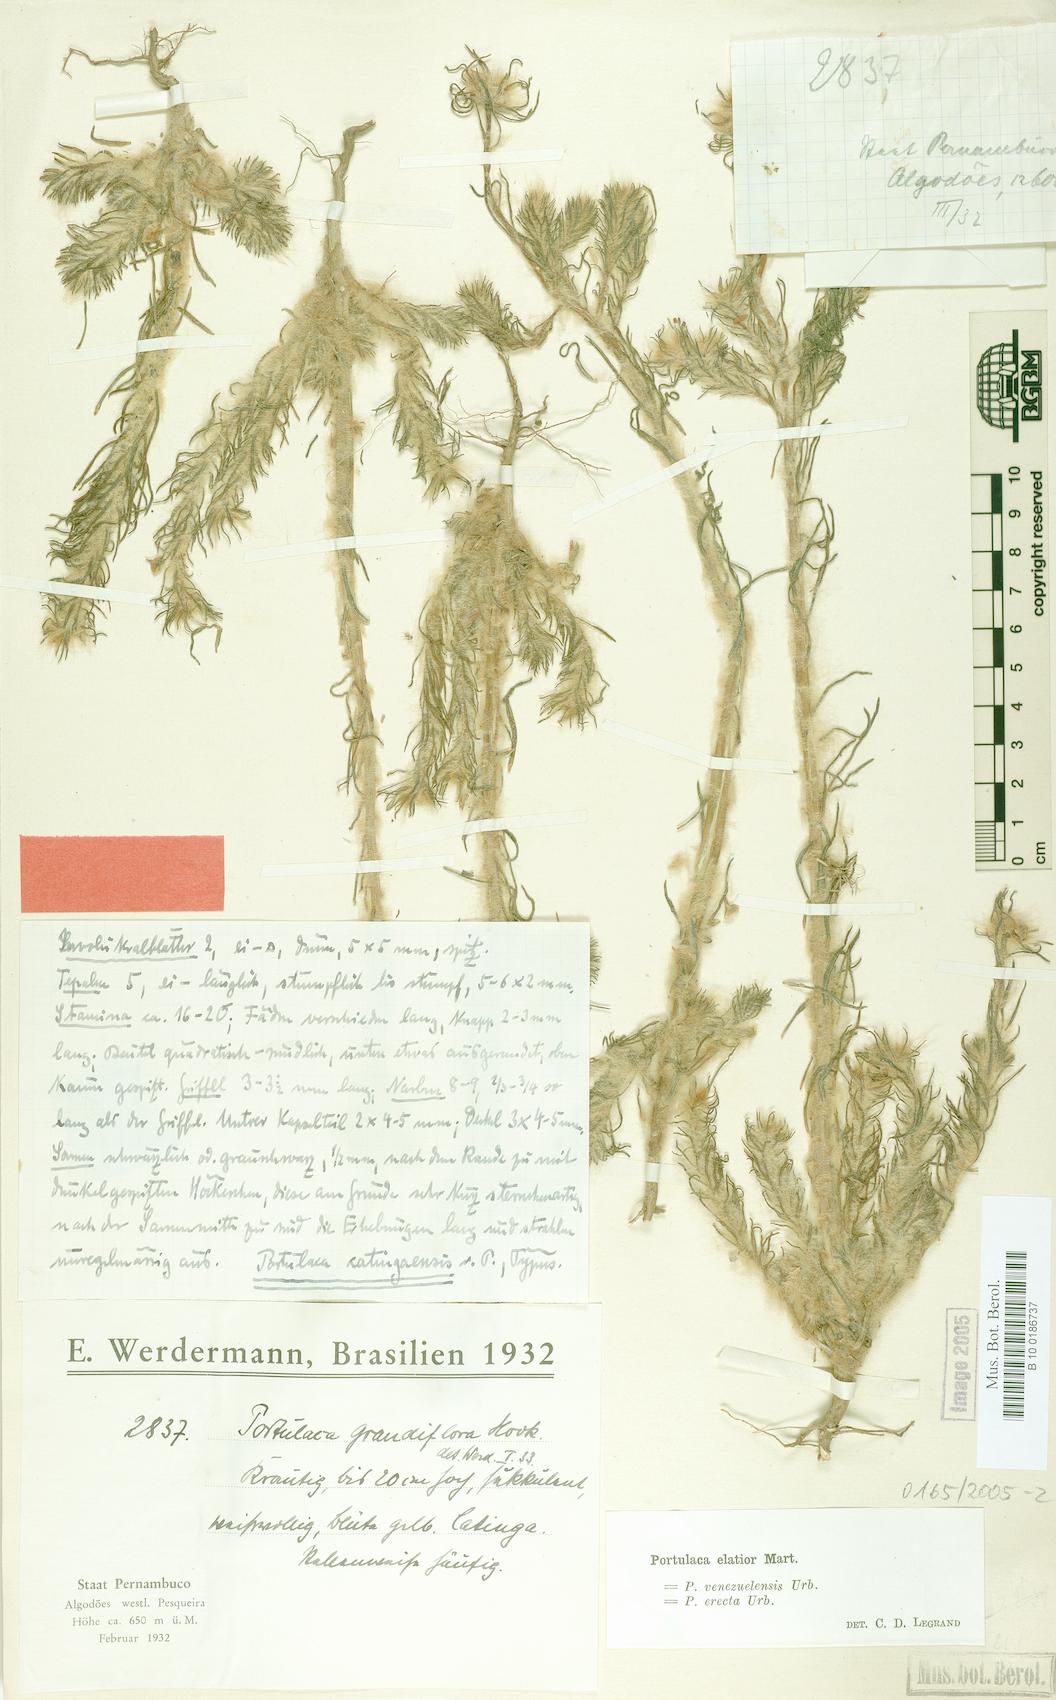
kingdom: Plantae
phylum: Tracheophyta
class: Magnoliopsida
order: Caryophyllales
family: Portulacaceae
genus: Portulaca
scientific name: Portulaca elatior
